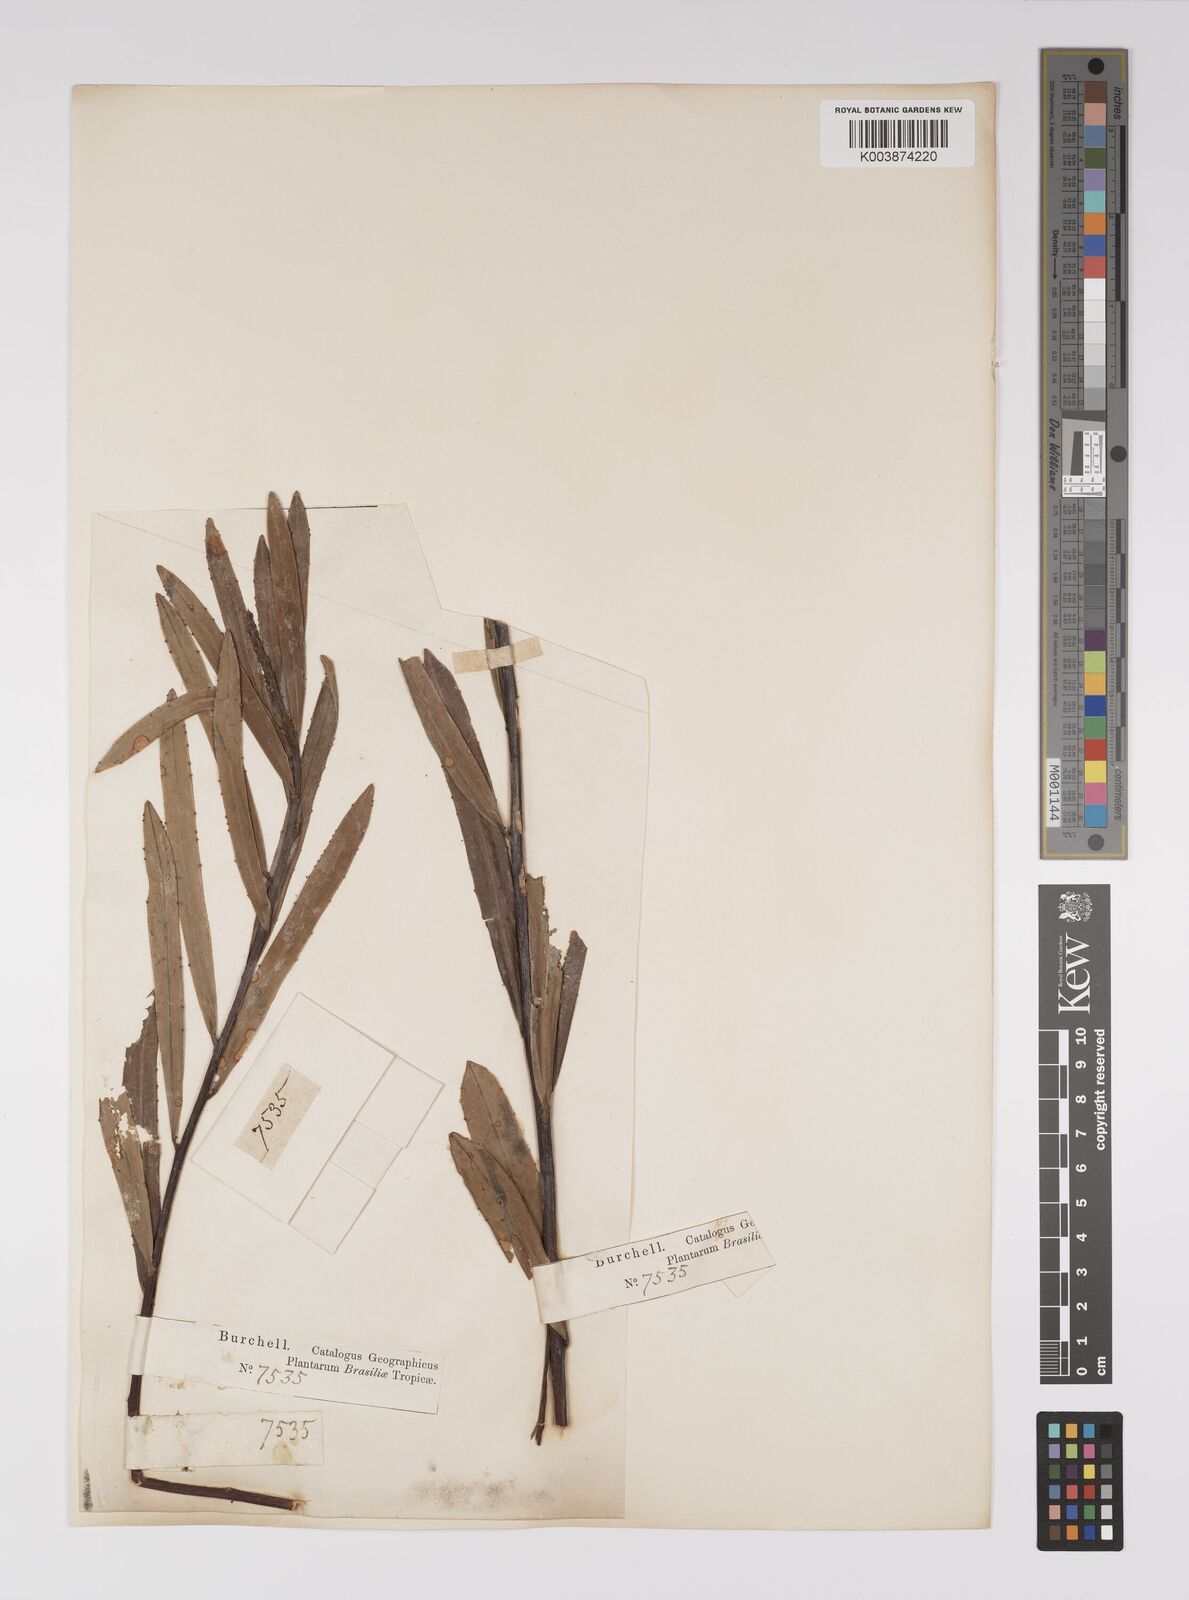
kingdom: Plantae
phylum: Tracheophyta
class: Magnoliopsida
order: Malpighiales
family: Euphorbiaceae
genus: Sapium
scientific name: Sapium
